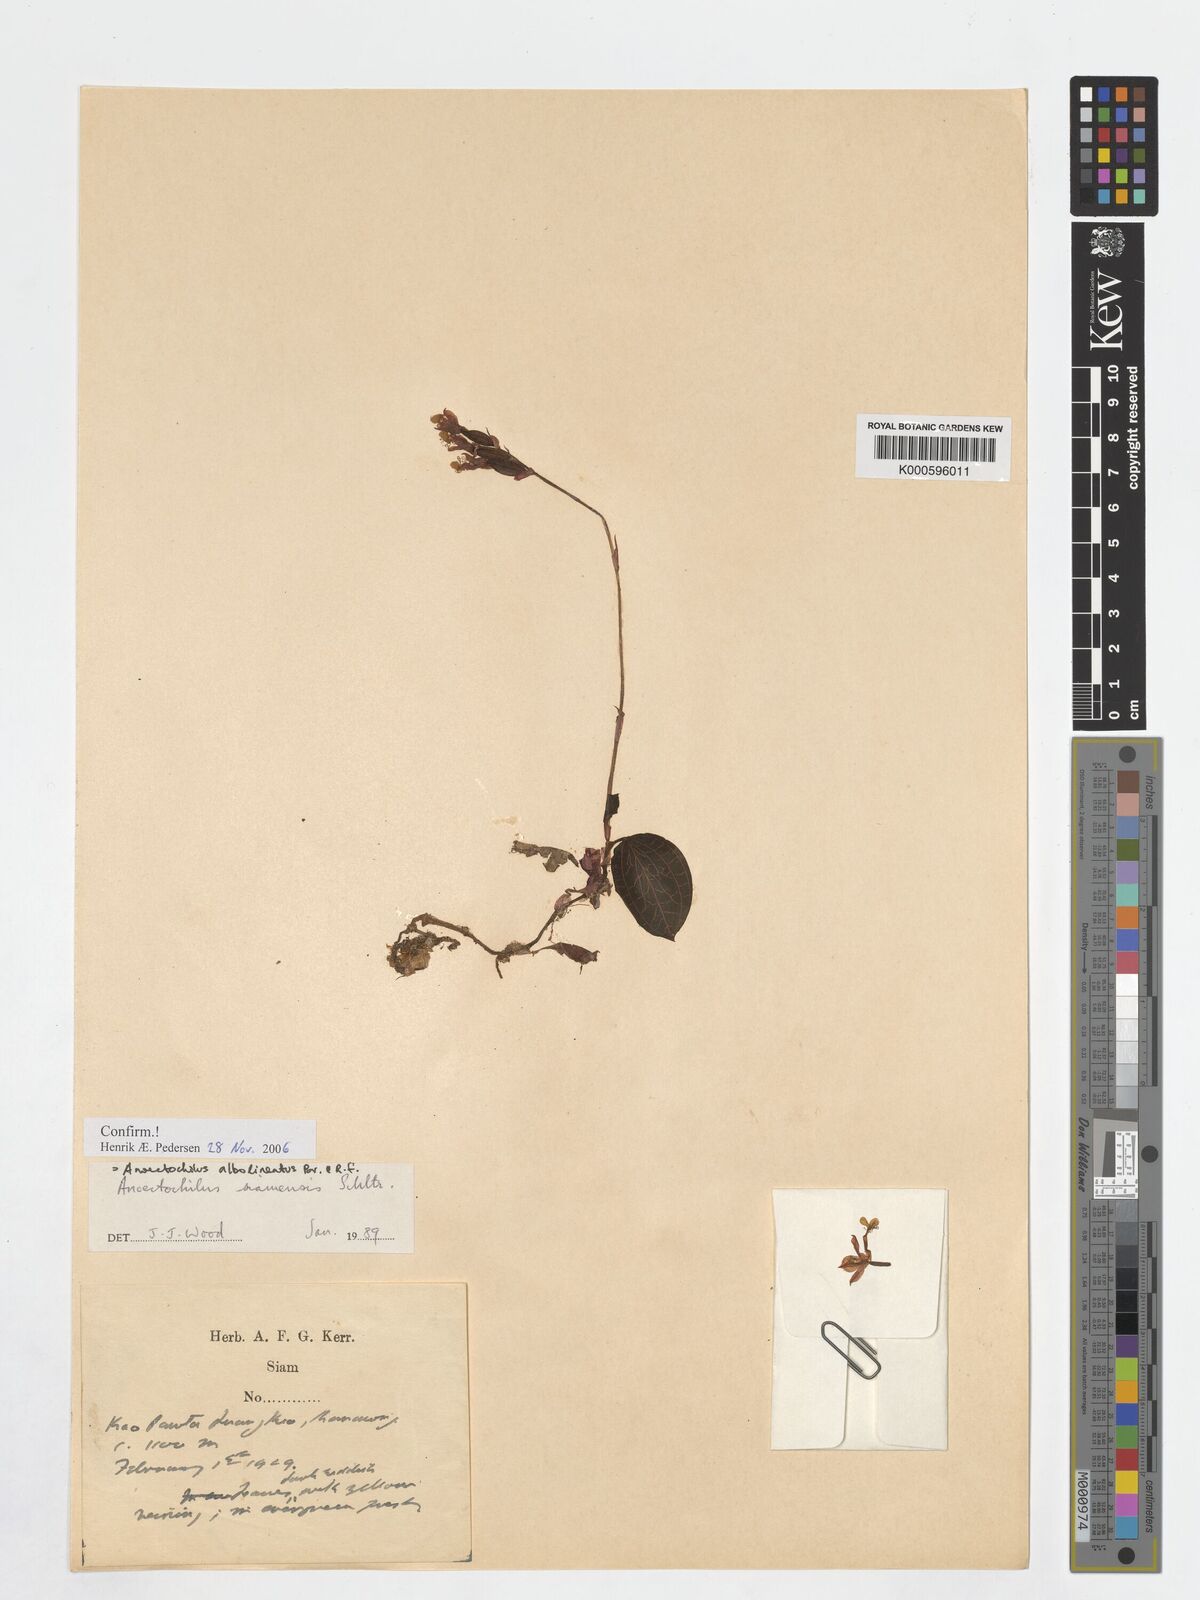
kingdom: Plantae
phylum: Tracheophyta
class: Liliopsida
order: Asparagales
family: Orchidaceae
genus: Anoectochilus
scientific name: Anoectochilus albolineatus
